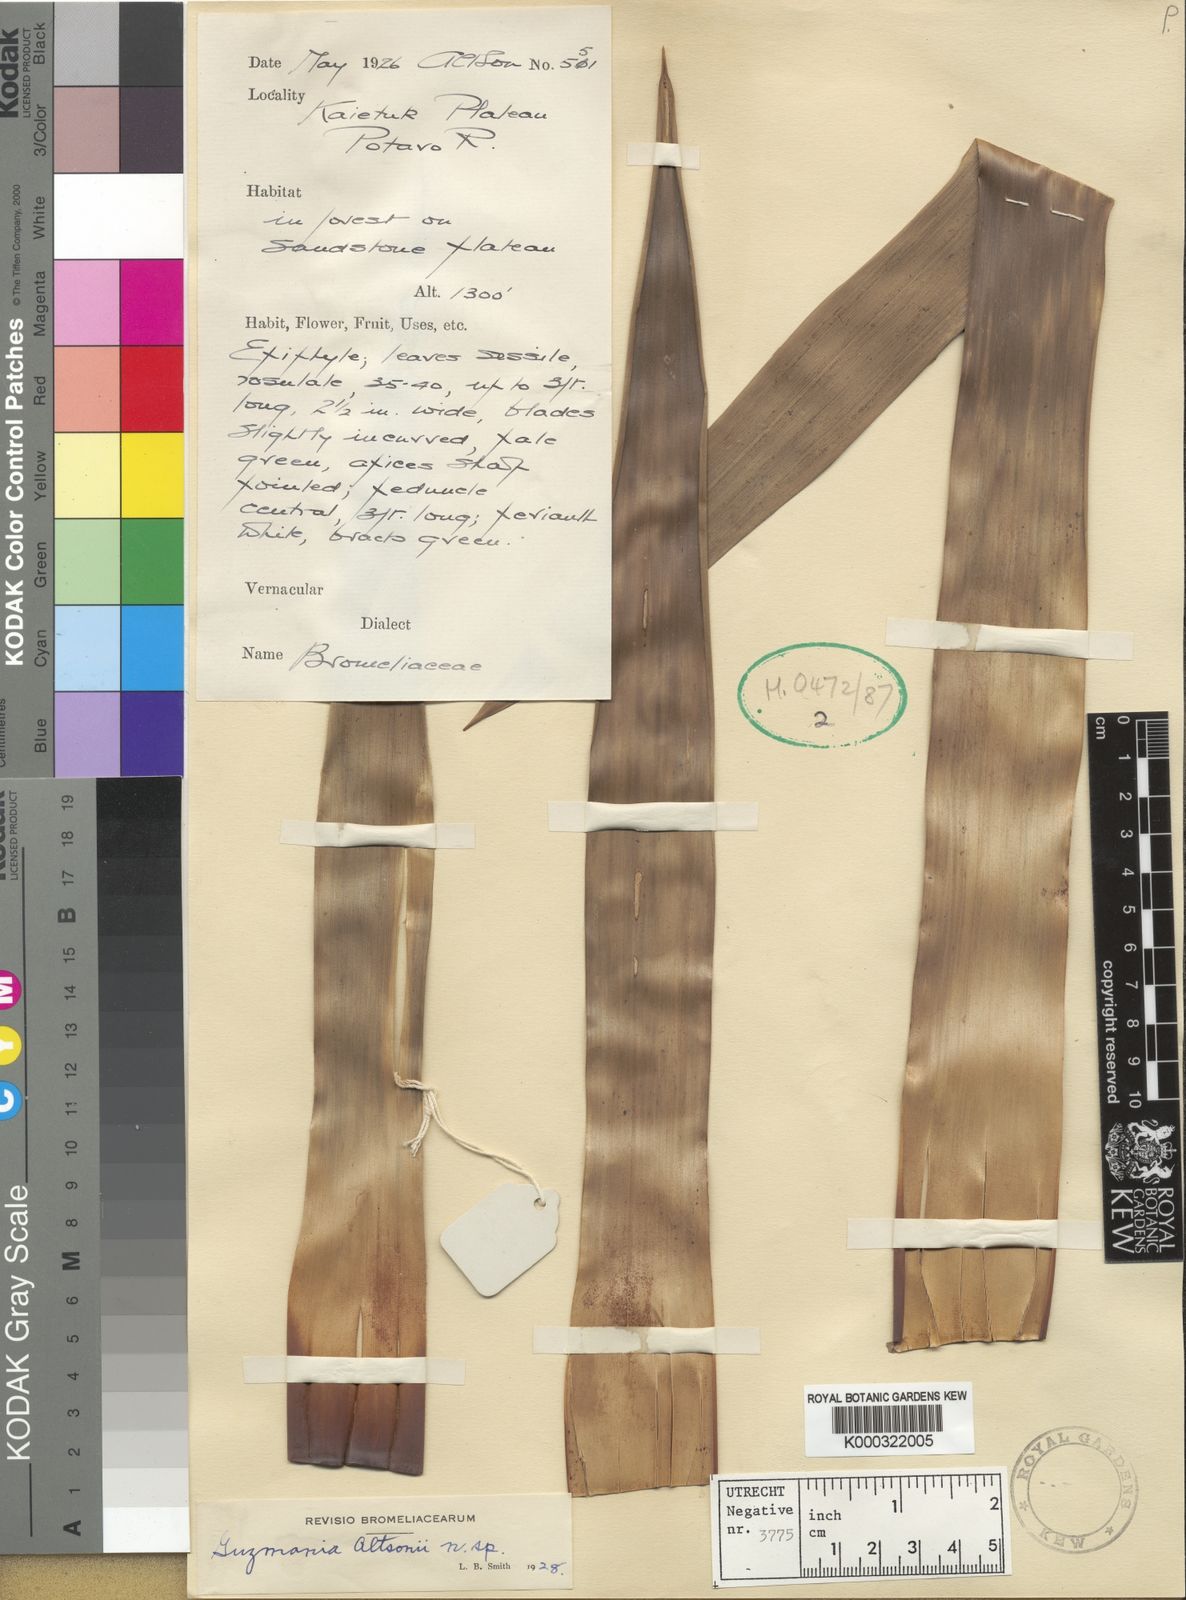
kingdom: Plantae
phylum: Tracheophyta
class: Liliopsida
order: Poales
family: Bromeliaceae
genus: Guzmania
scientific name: Guzmania altsonii
